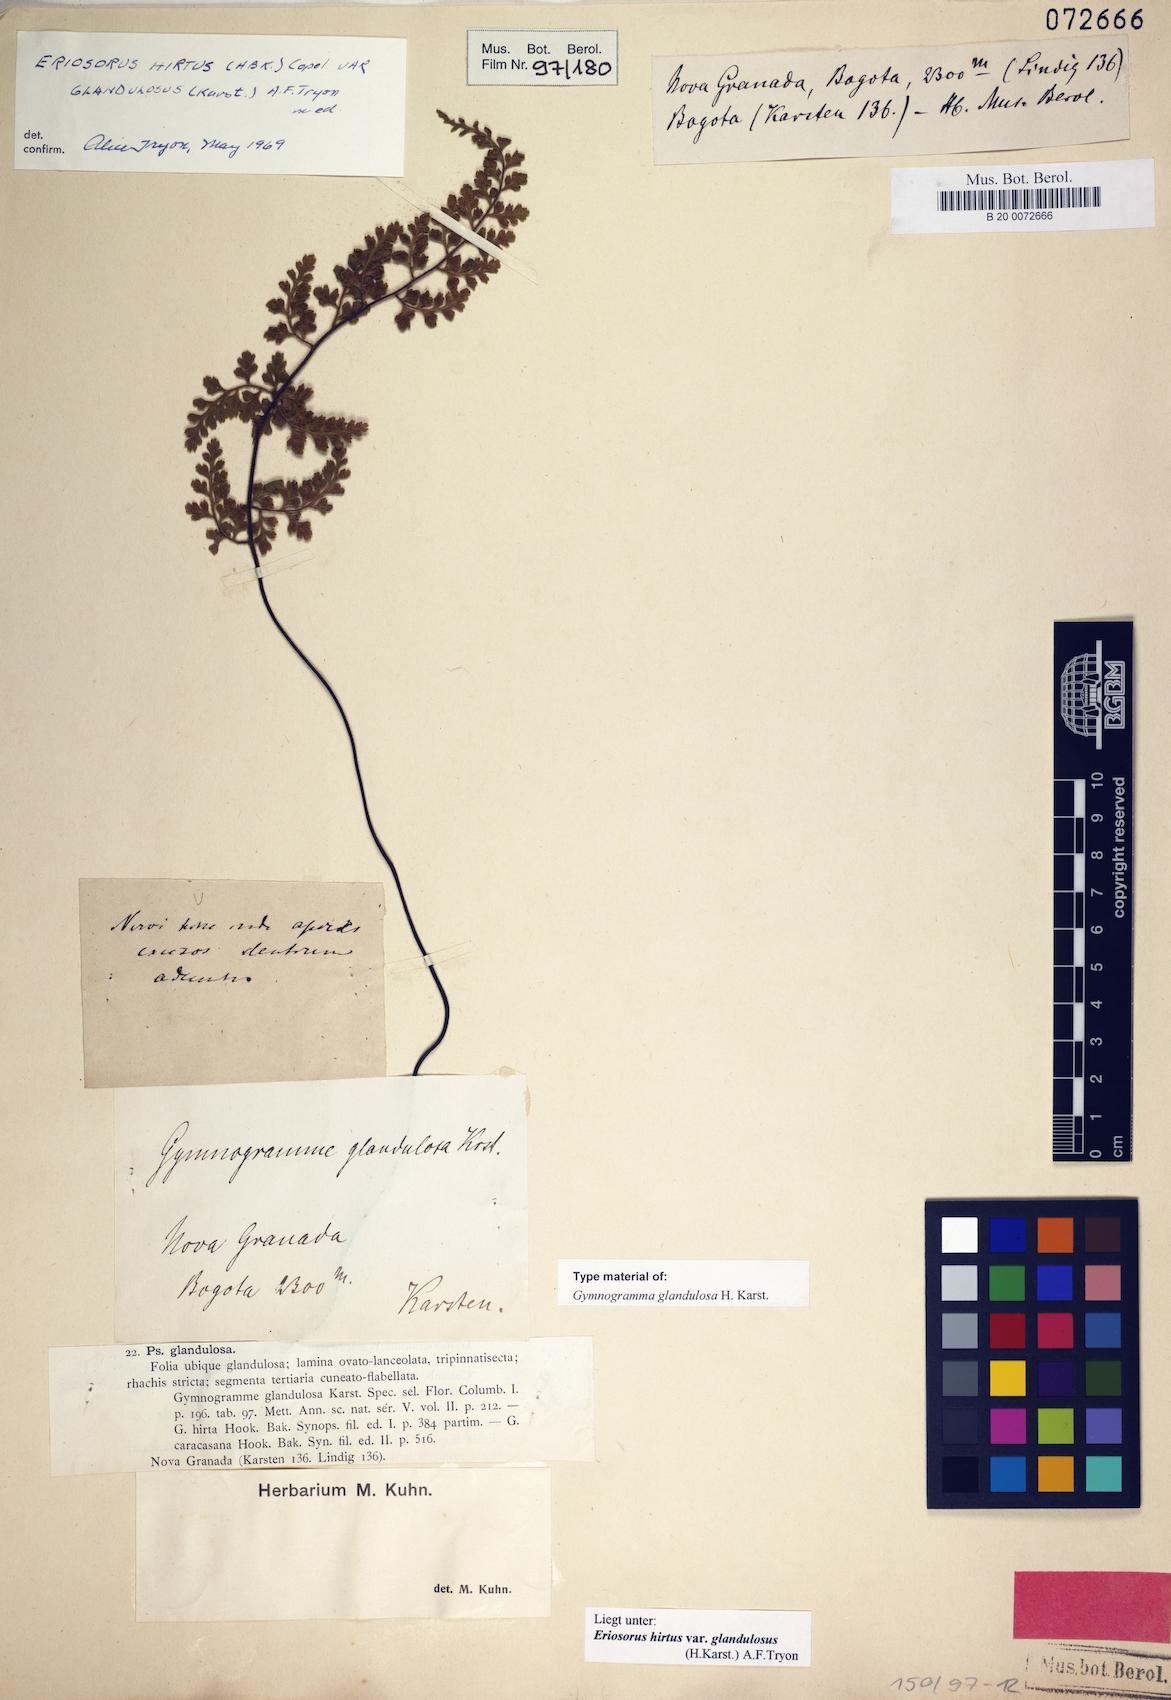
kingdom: Plantae
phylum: Tracheophyta
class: Polypodiopsida
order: Polypodiales
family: Pteridaceae
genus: Jamesonia
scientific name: Jamesonia hirta
